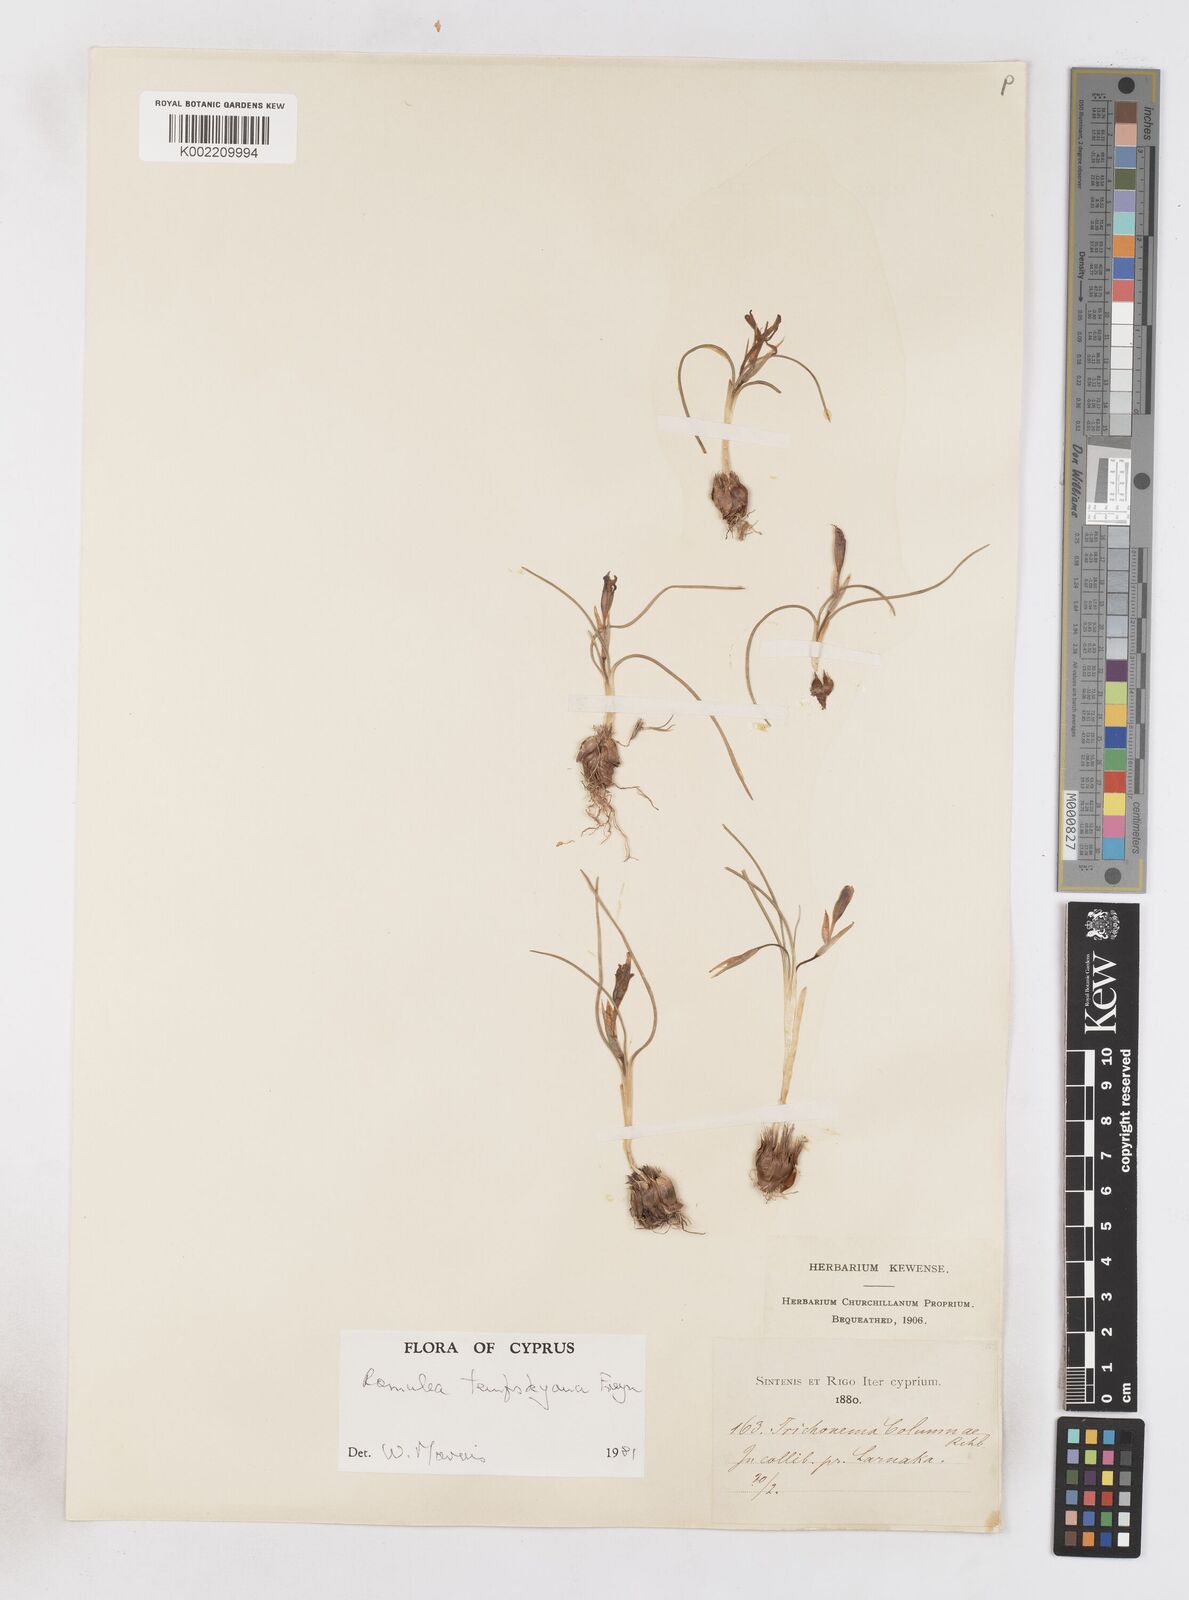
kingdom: Plantae
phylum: Tracheophyta
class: Liliopsida
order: Asparagales
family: Iridaceae
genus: Romulea
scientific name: Romulea tempskyana
